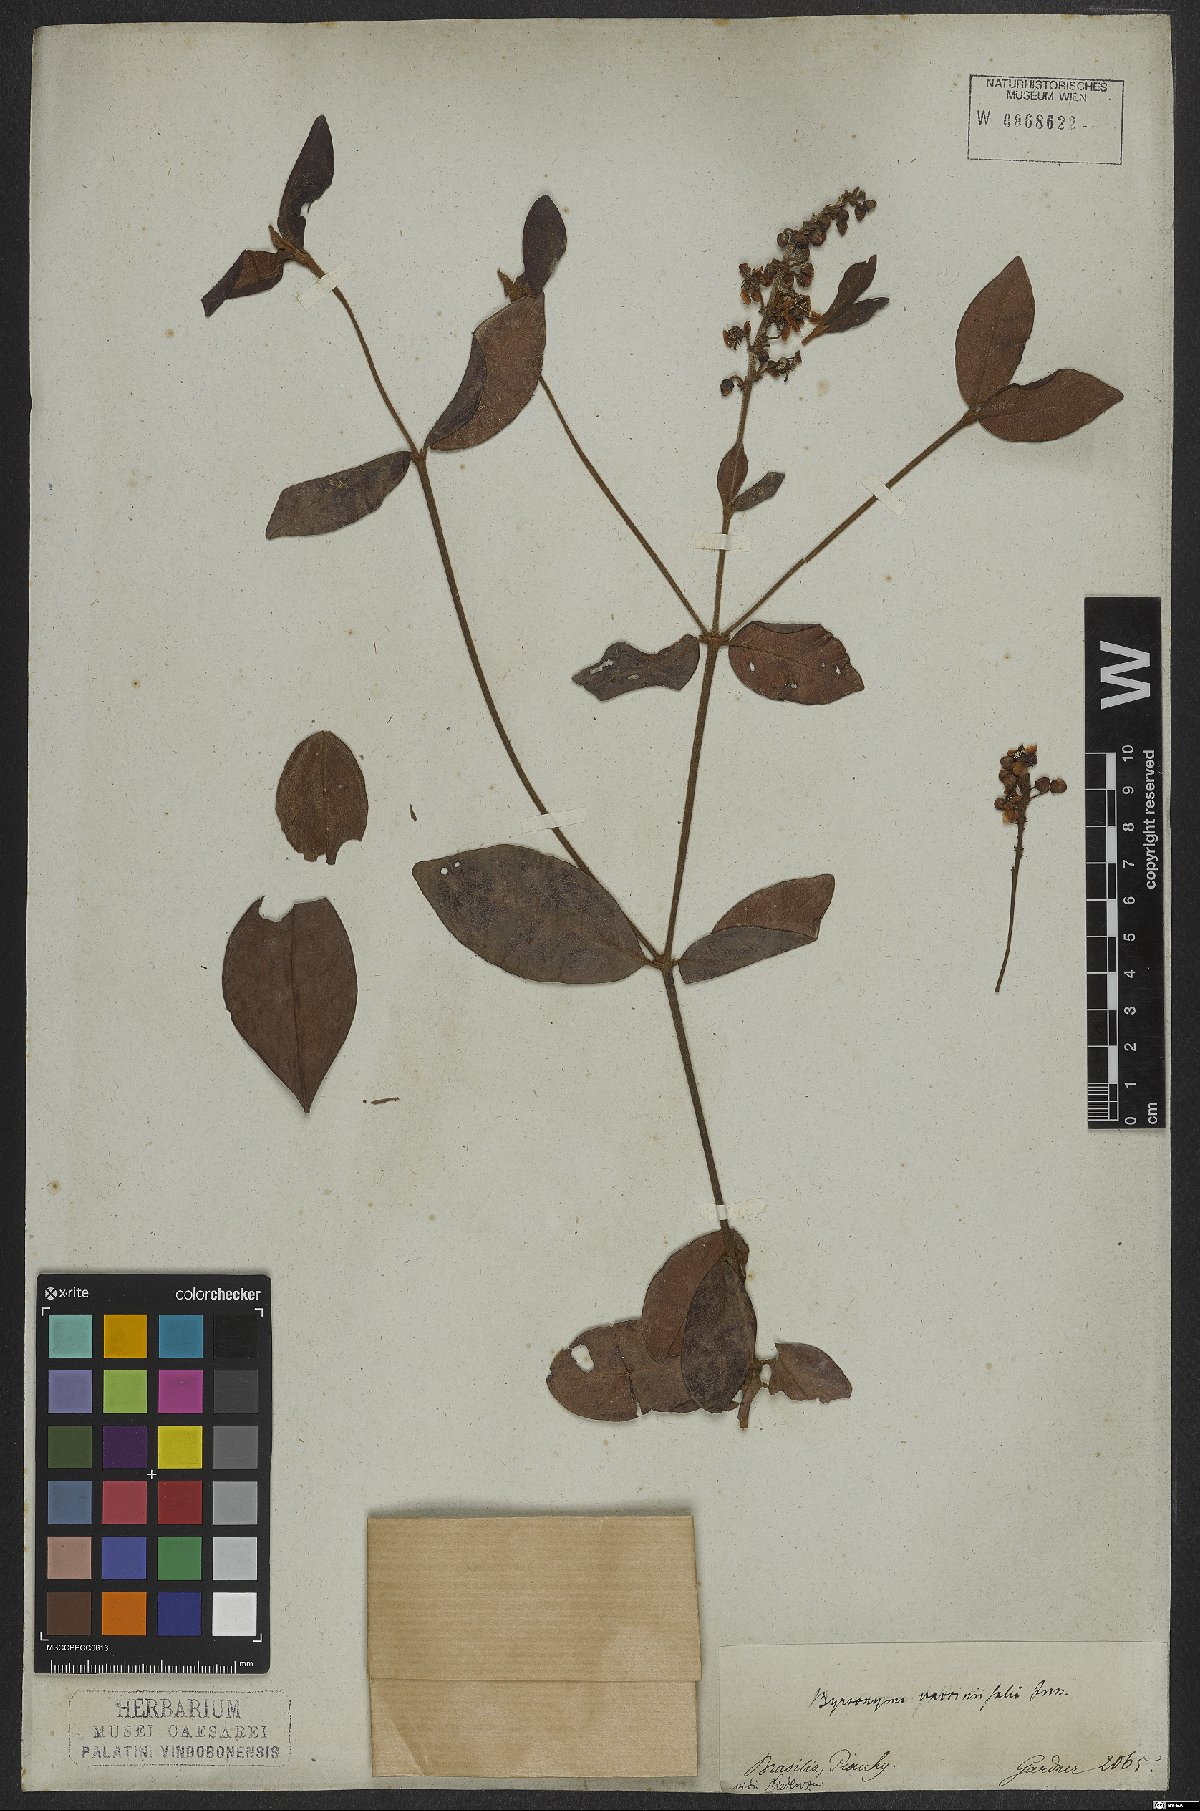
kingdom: Plantae
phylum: Tracheophyta
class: Magnoliopsida
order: Malpighiales
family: Malpighiaceae
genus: Byrsonima
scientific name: Byrsonima vacciniifolia
